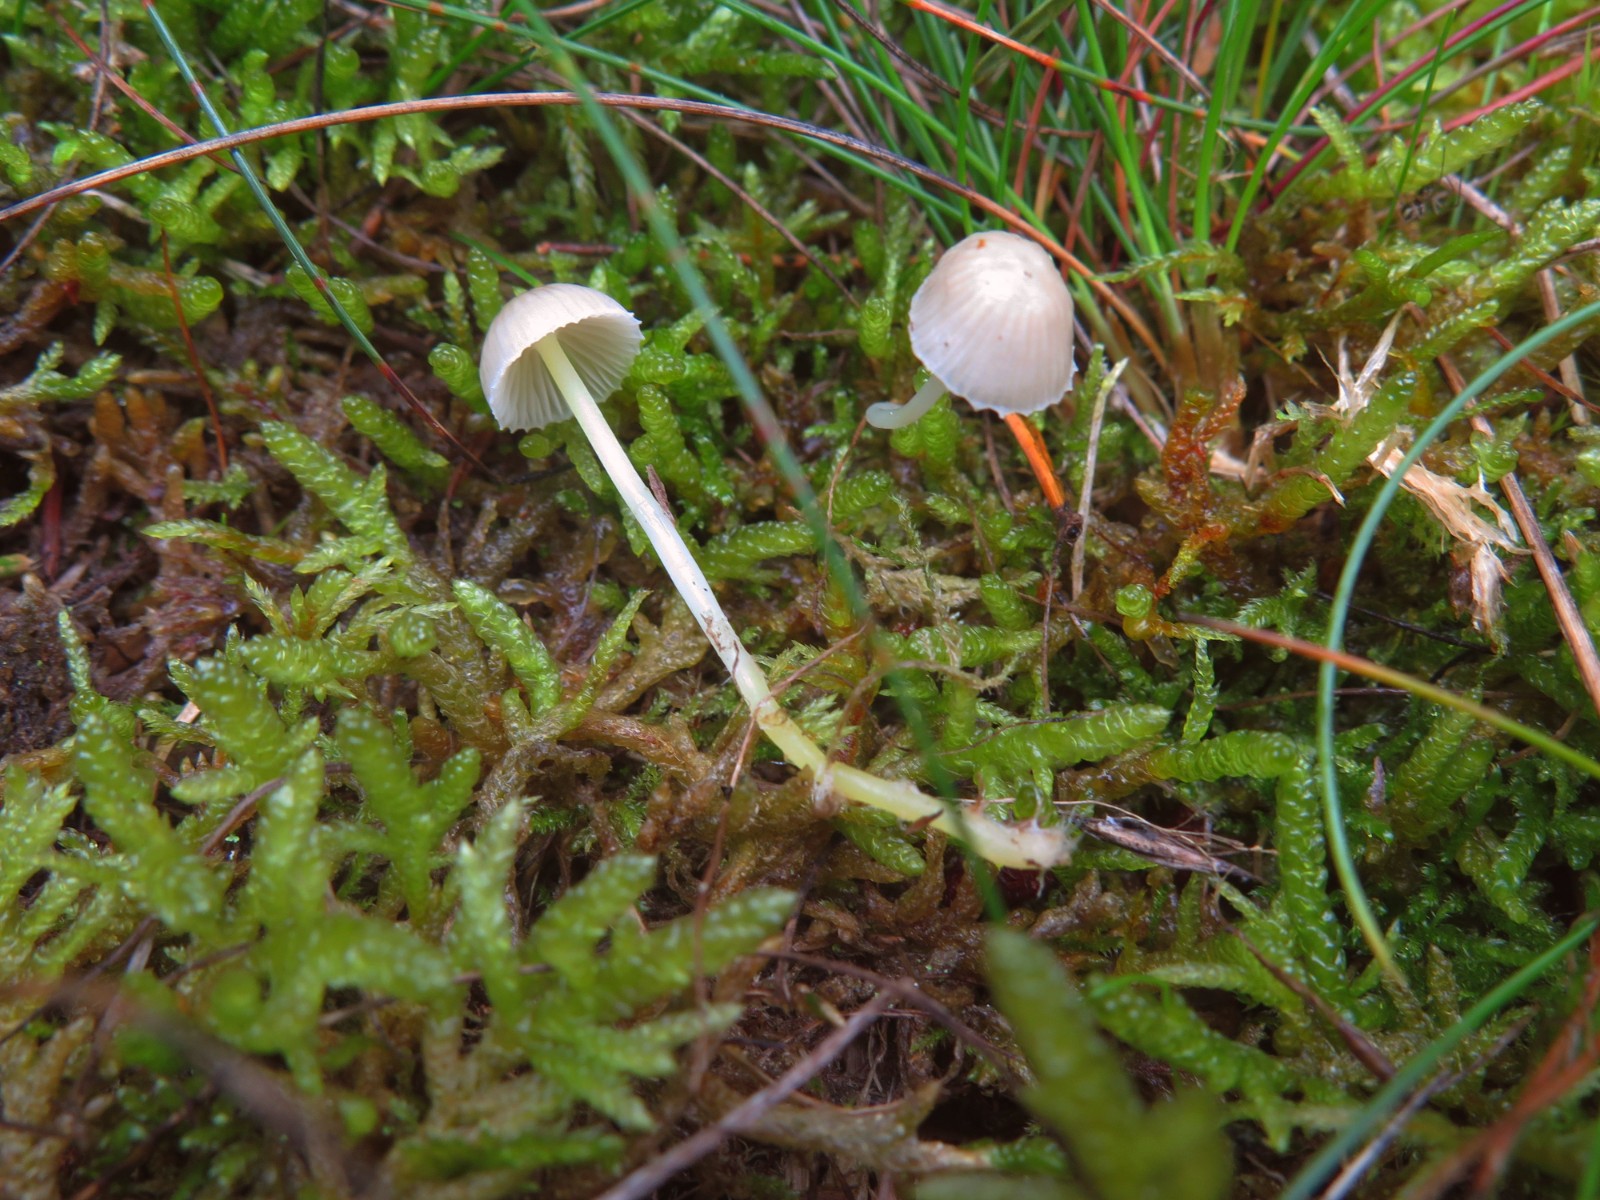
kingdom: Fungi
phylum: Basidiomycota
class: Agaricomycetes
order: Agaricales
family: Mycenaceae
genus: Mycena
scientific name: Mycena epipterygia
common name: gulstokket huesvamp
